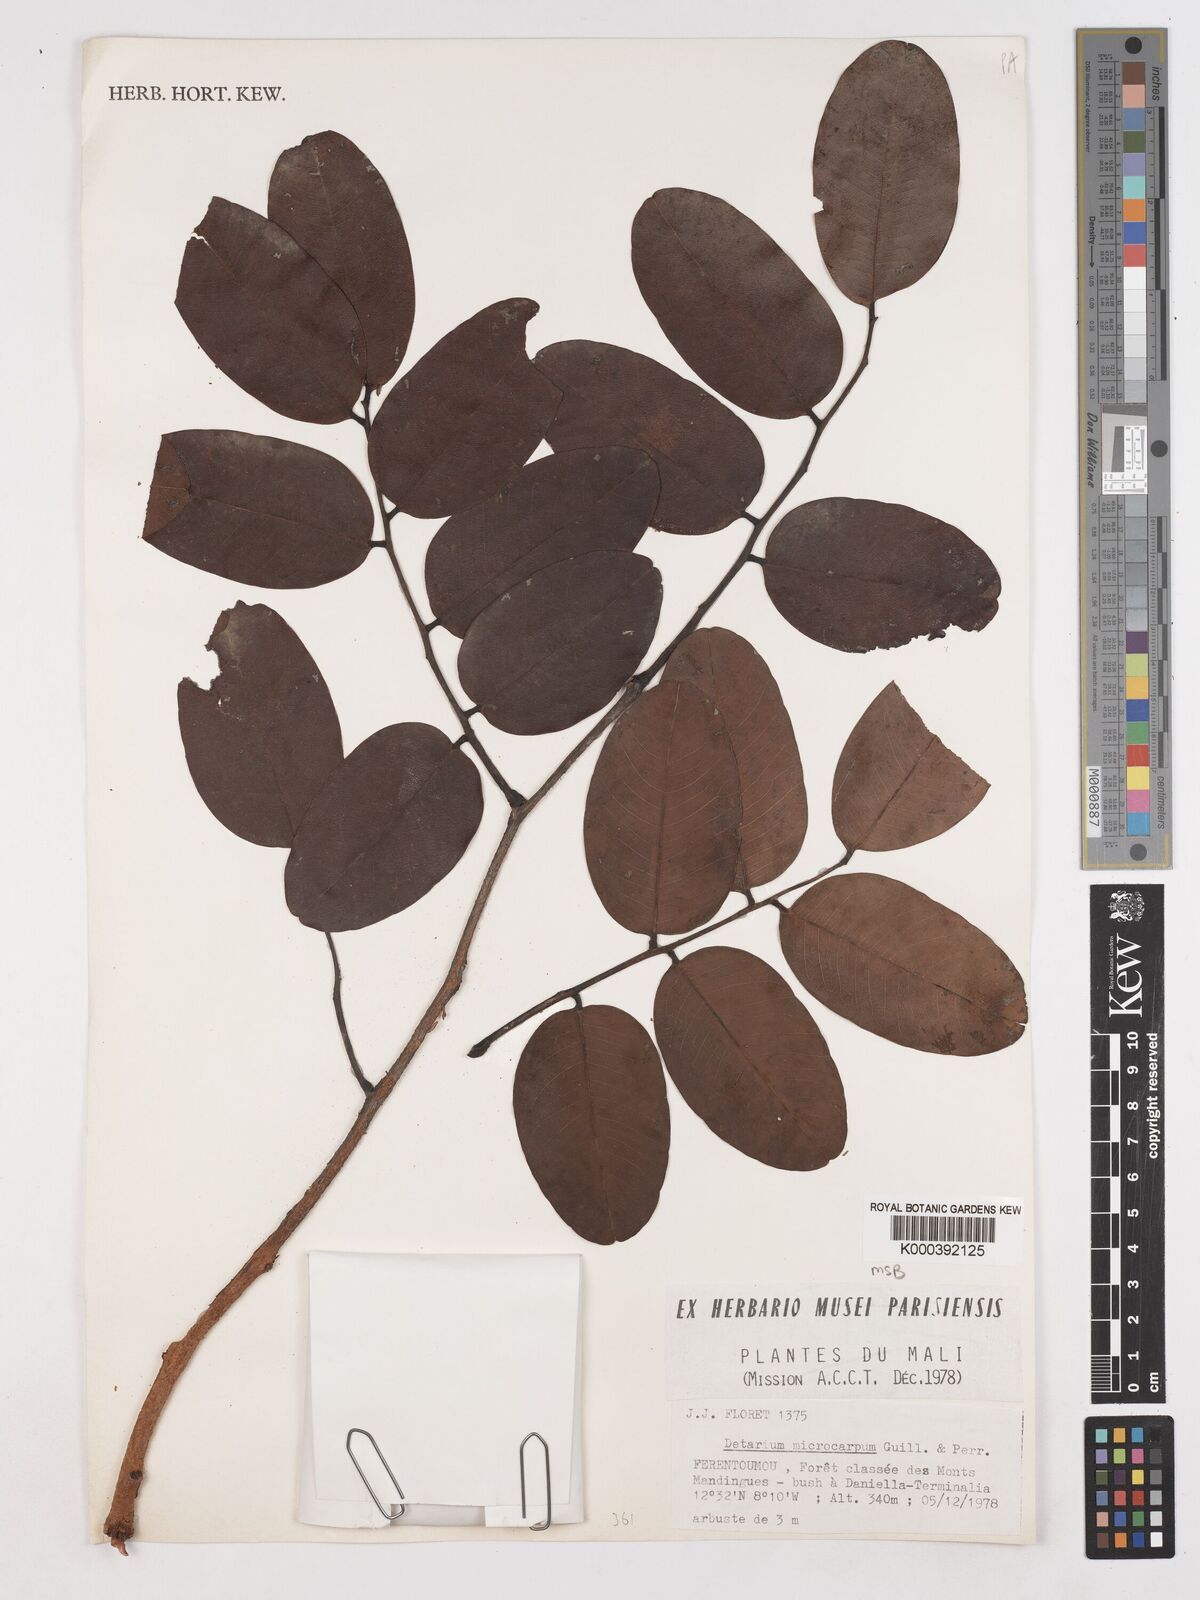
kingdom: Plantae
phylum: Tracheophyta
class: Magnoliopsida
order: Fabales
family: Fabaceae
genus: Detarium
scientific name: Detarium microcarpum
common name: Sweet dattock
